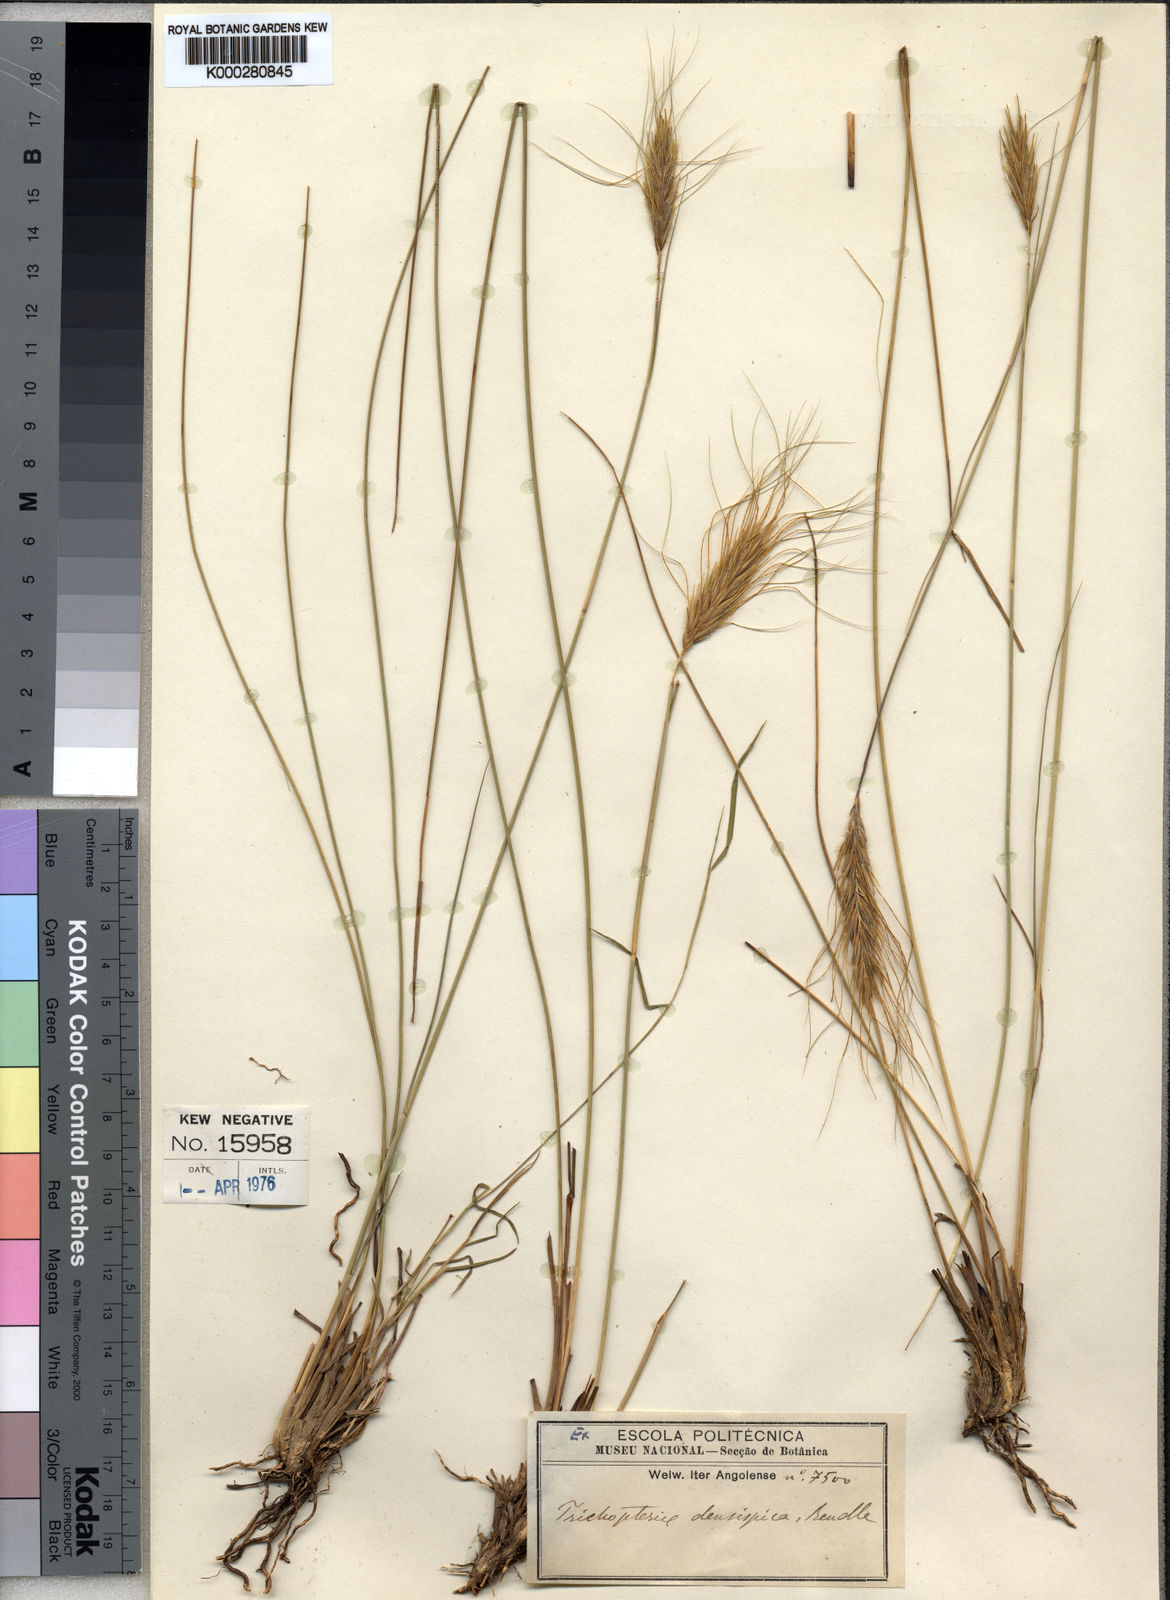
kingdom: Plantae
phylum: Tracheophyta
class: Liliopsida
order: Poales
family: Poaceae
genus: Loudetia
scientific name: Loudetia densispica
